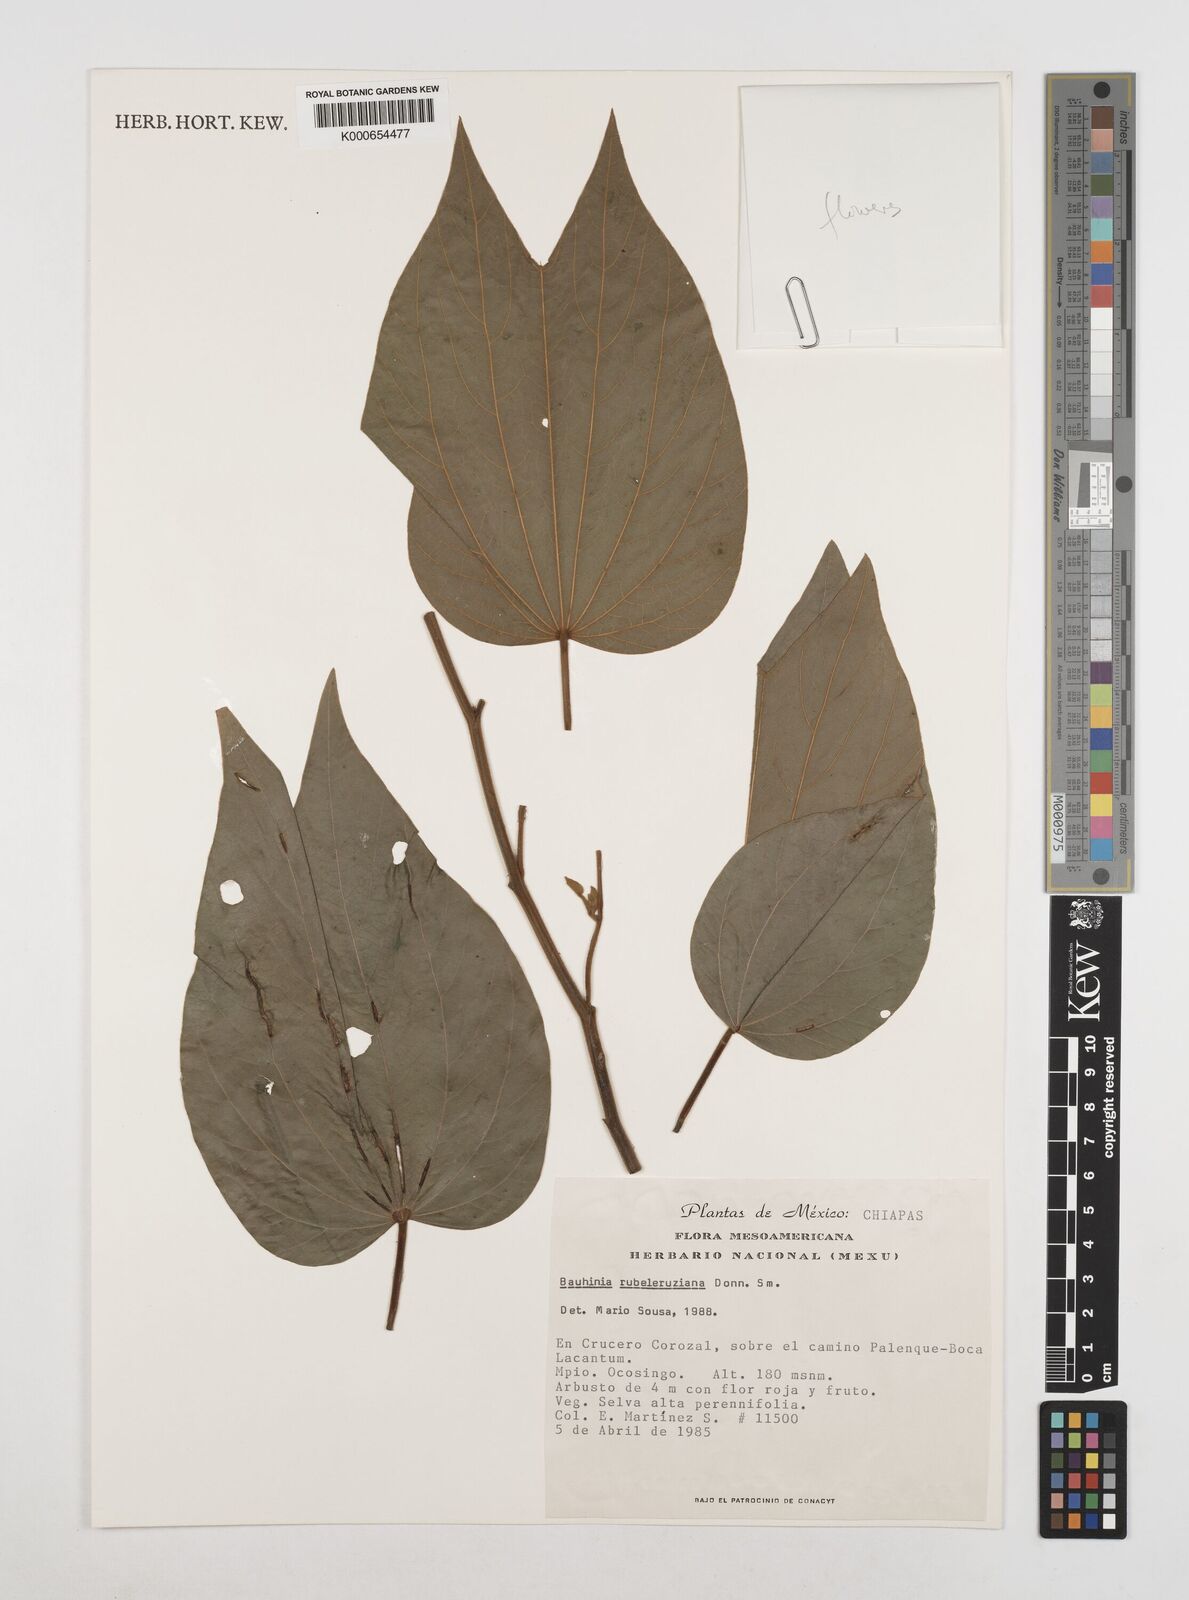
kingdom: Plantae
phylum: Tracheophyta
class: Magnoliopsida
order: Fabales
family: Fabaceae
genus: Bauhinia
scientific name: Bauhinia rubeleruziana
